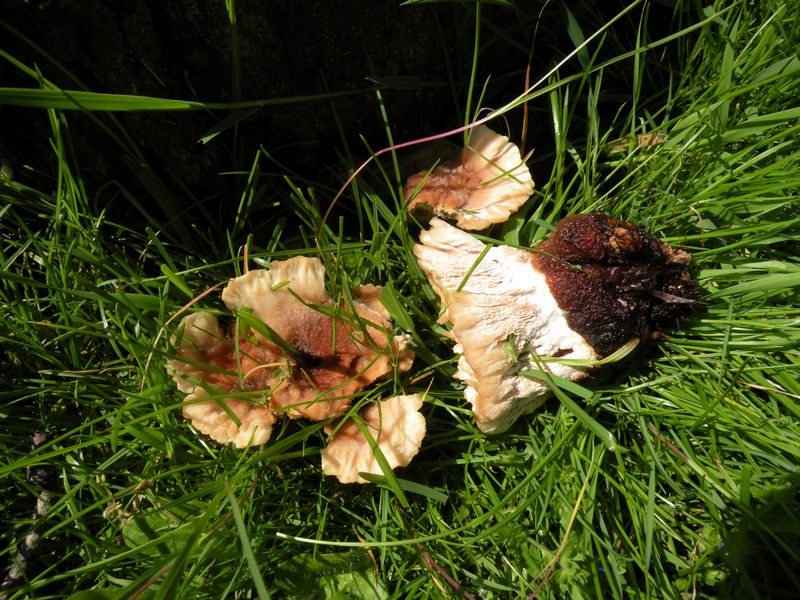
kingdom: Fungi
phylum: Basidiomycota
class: Agaricomycetes
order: Polyporales
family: Podoscyphaceae
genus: Abortiporus
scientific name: Abortiporus biennis
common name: rødmende pjalteporesvamp
